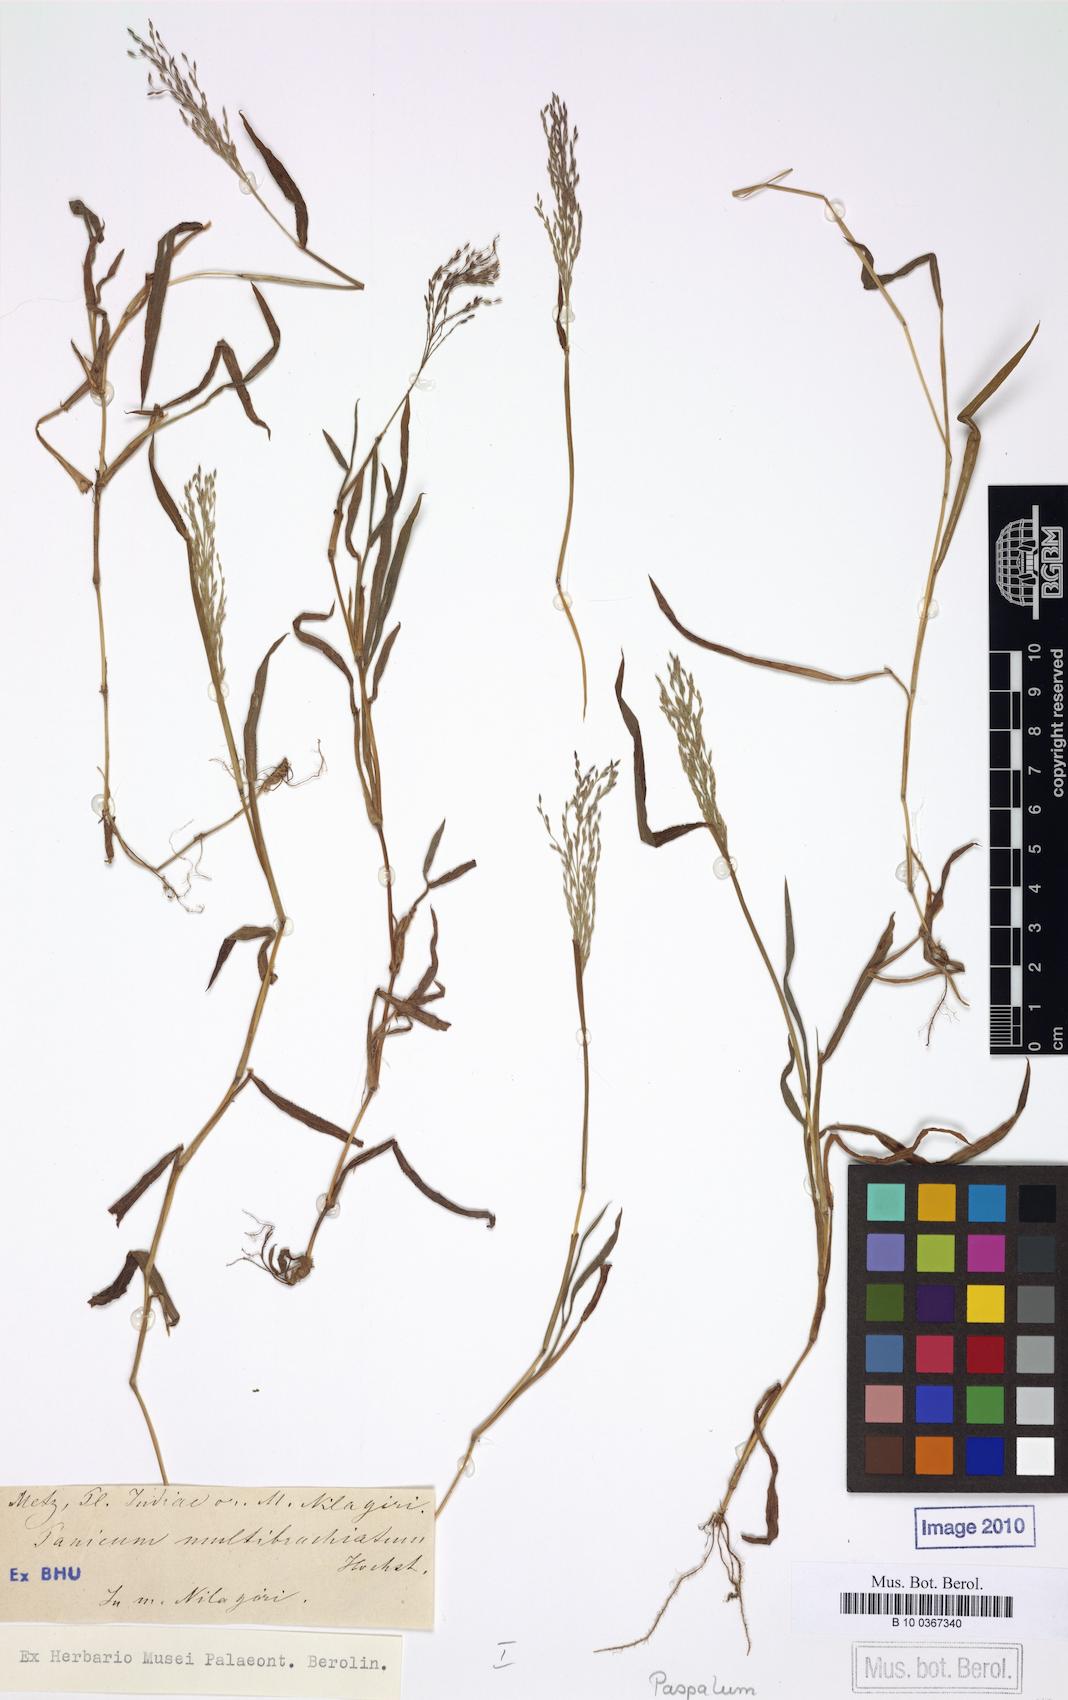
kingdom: Plantae
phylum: Tracheophyta
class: Liliopsida
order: Poales
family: Poaceae
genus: Digitaria
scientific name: Digitaria wallichiana
